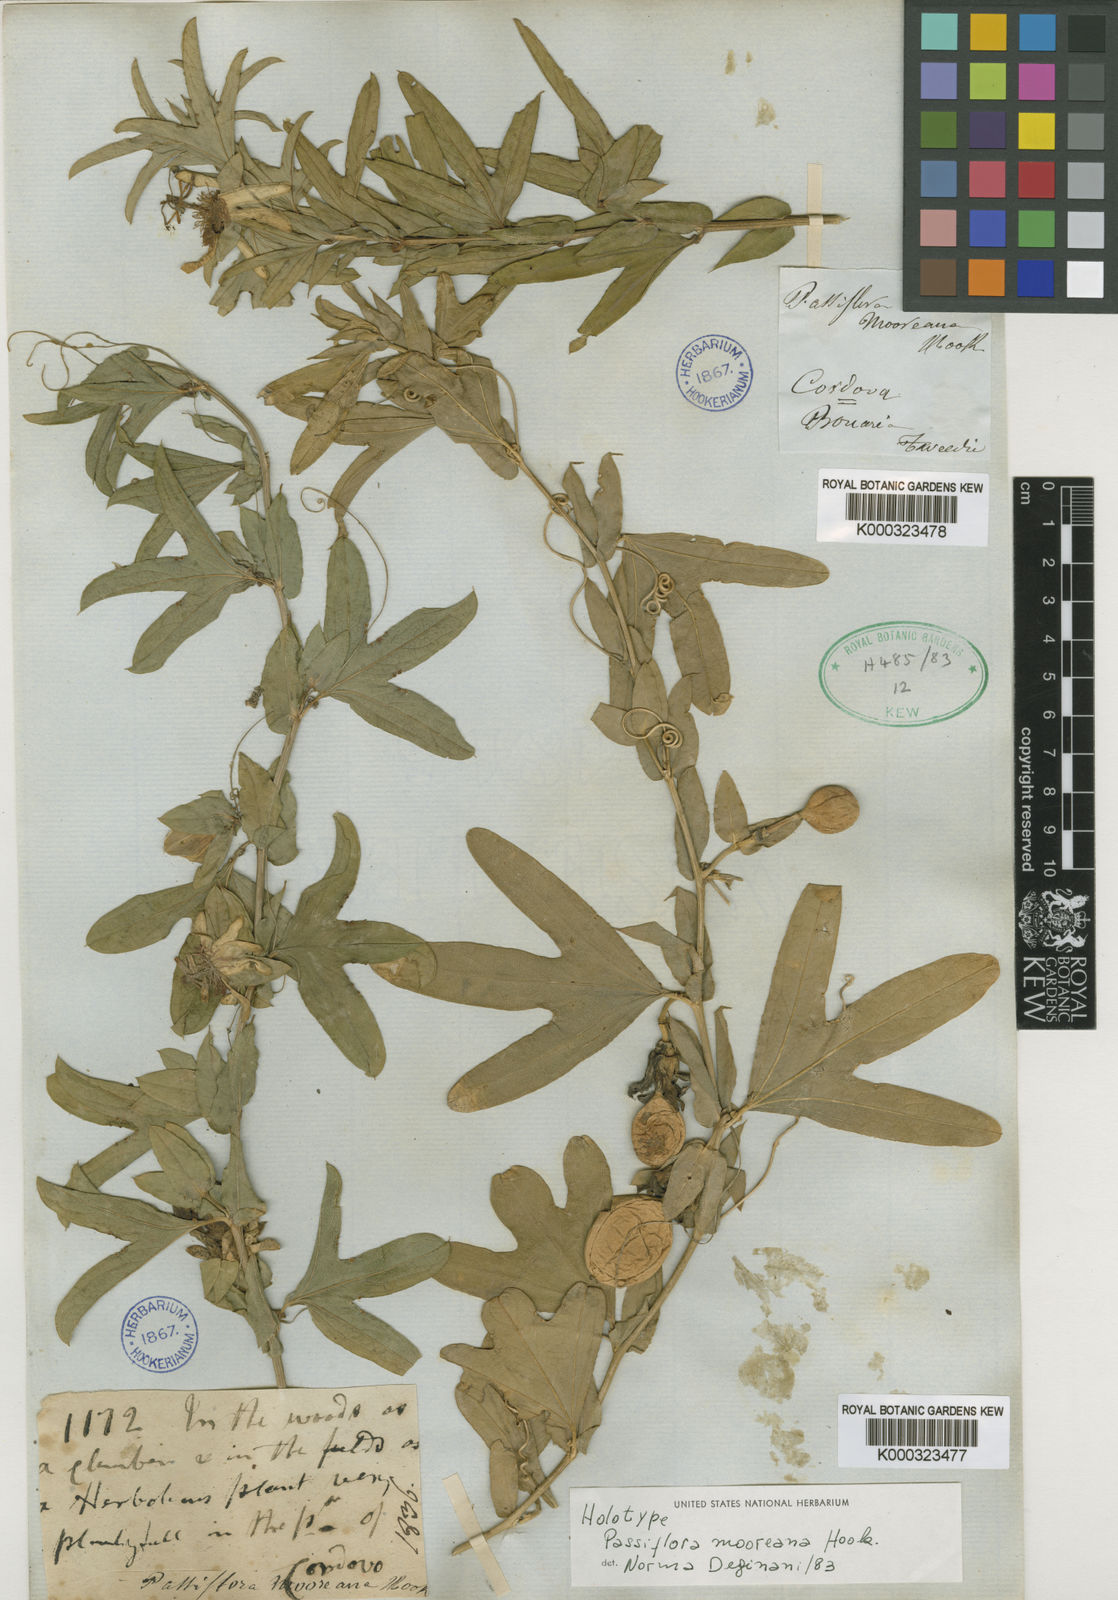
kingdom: Plantae
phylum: Tracheophyta
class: Magnoliopsida
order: Malpighiales
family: Passifloraceae
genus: Passiflora
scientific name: Passiflora mooreana
